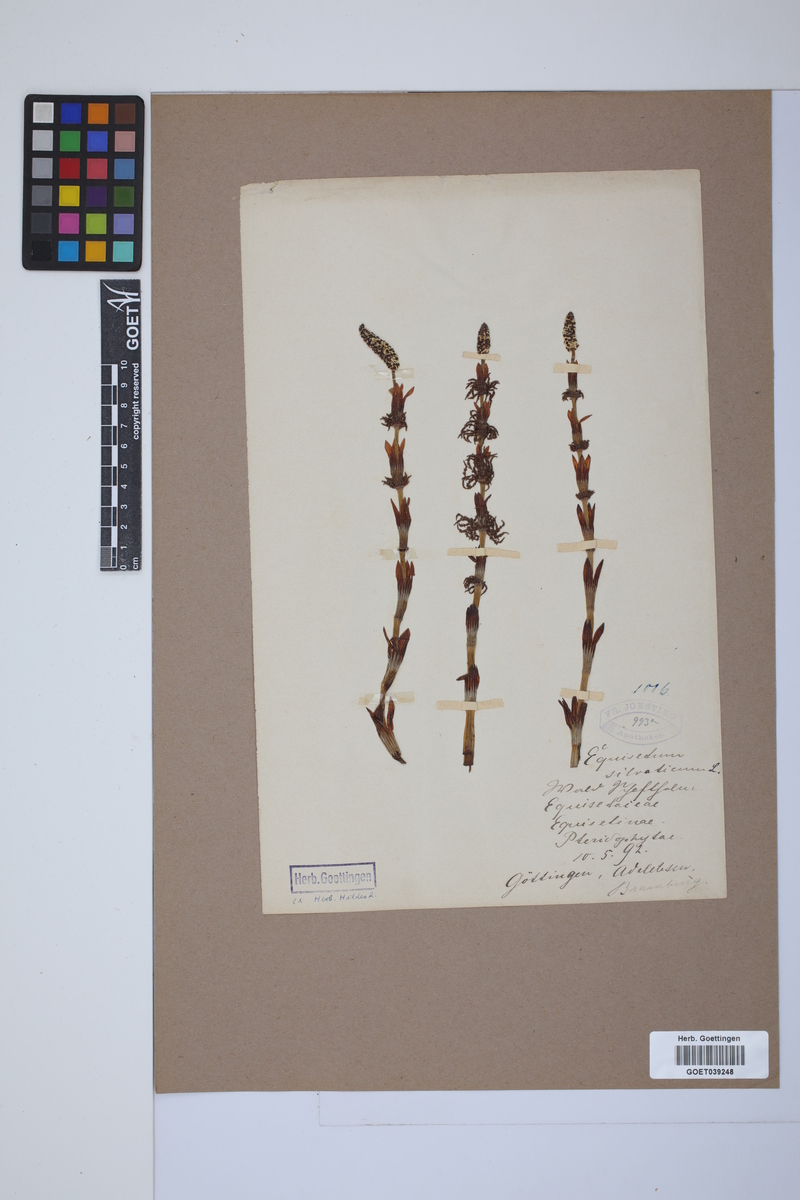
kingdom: Plantae
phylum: Tracheophyta
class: Polypodiopsida
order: Equisetales
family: Equisetaceae
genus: Equisetum
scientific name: Equisetum sylvaticum
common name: Wood horsetail
